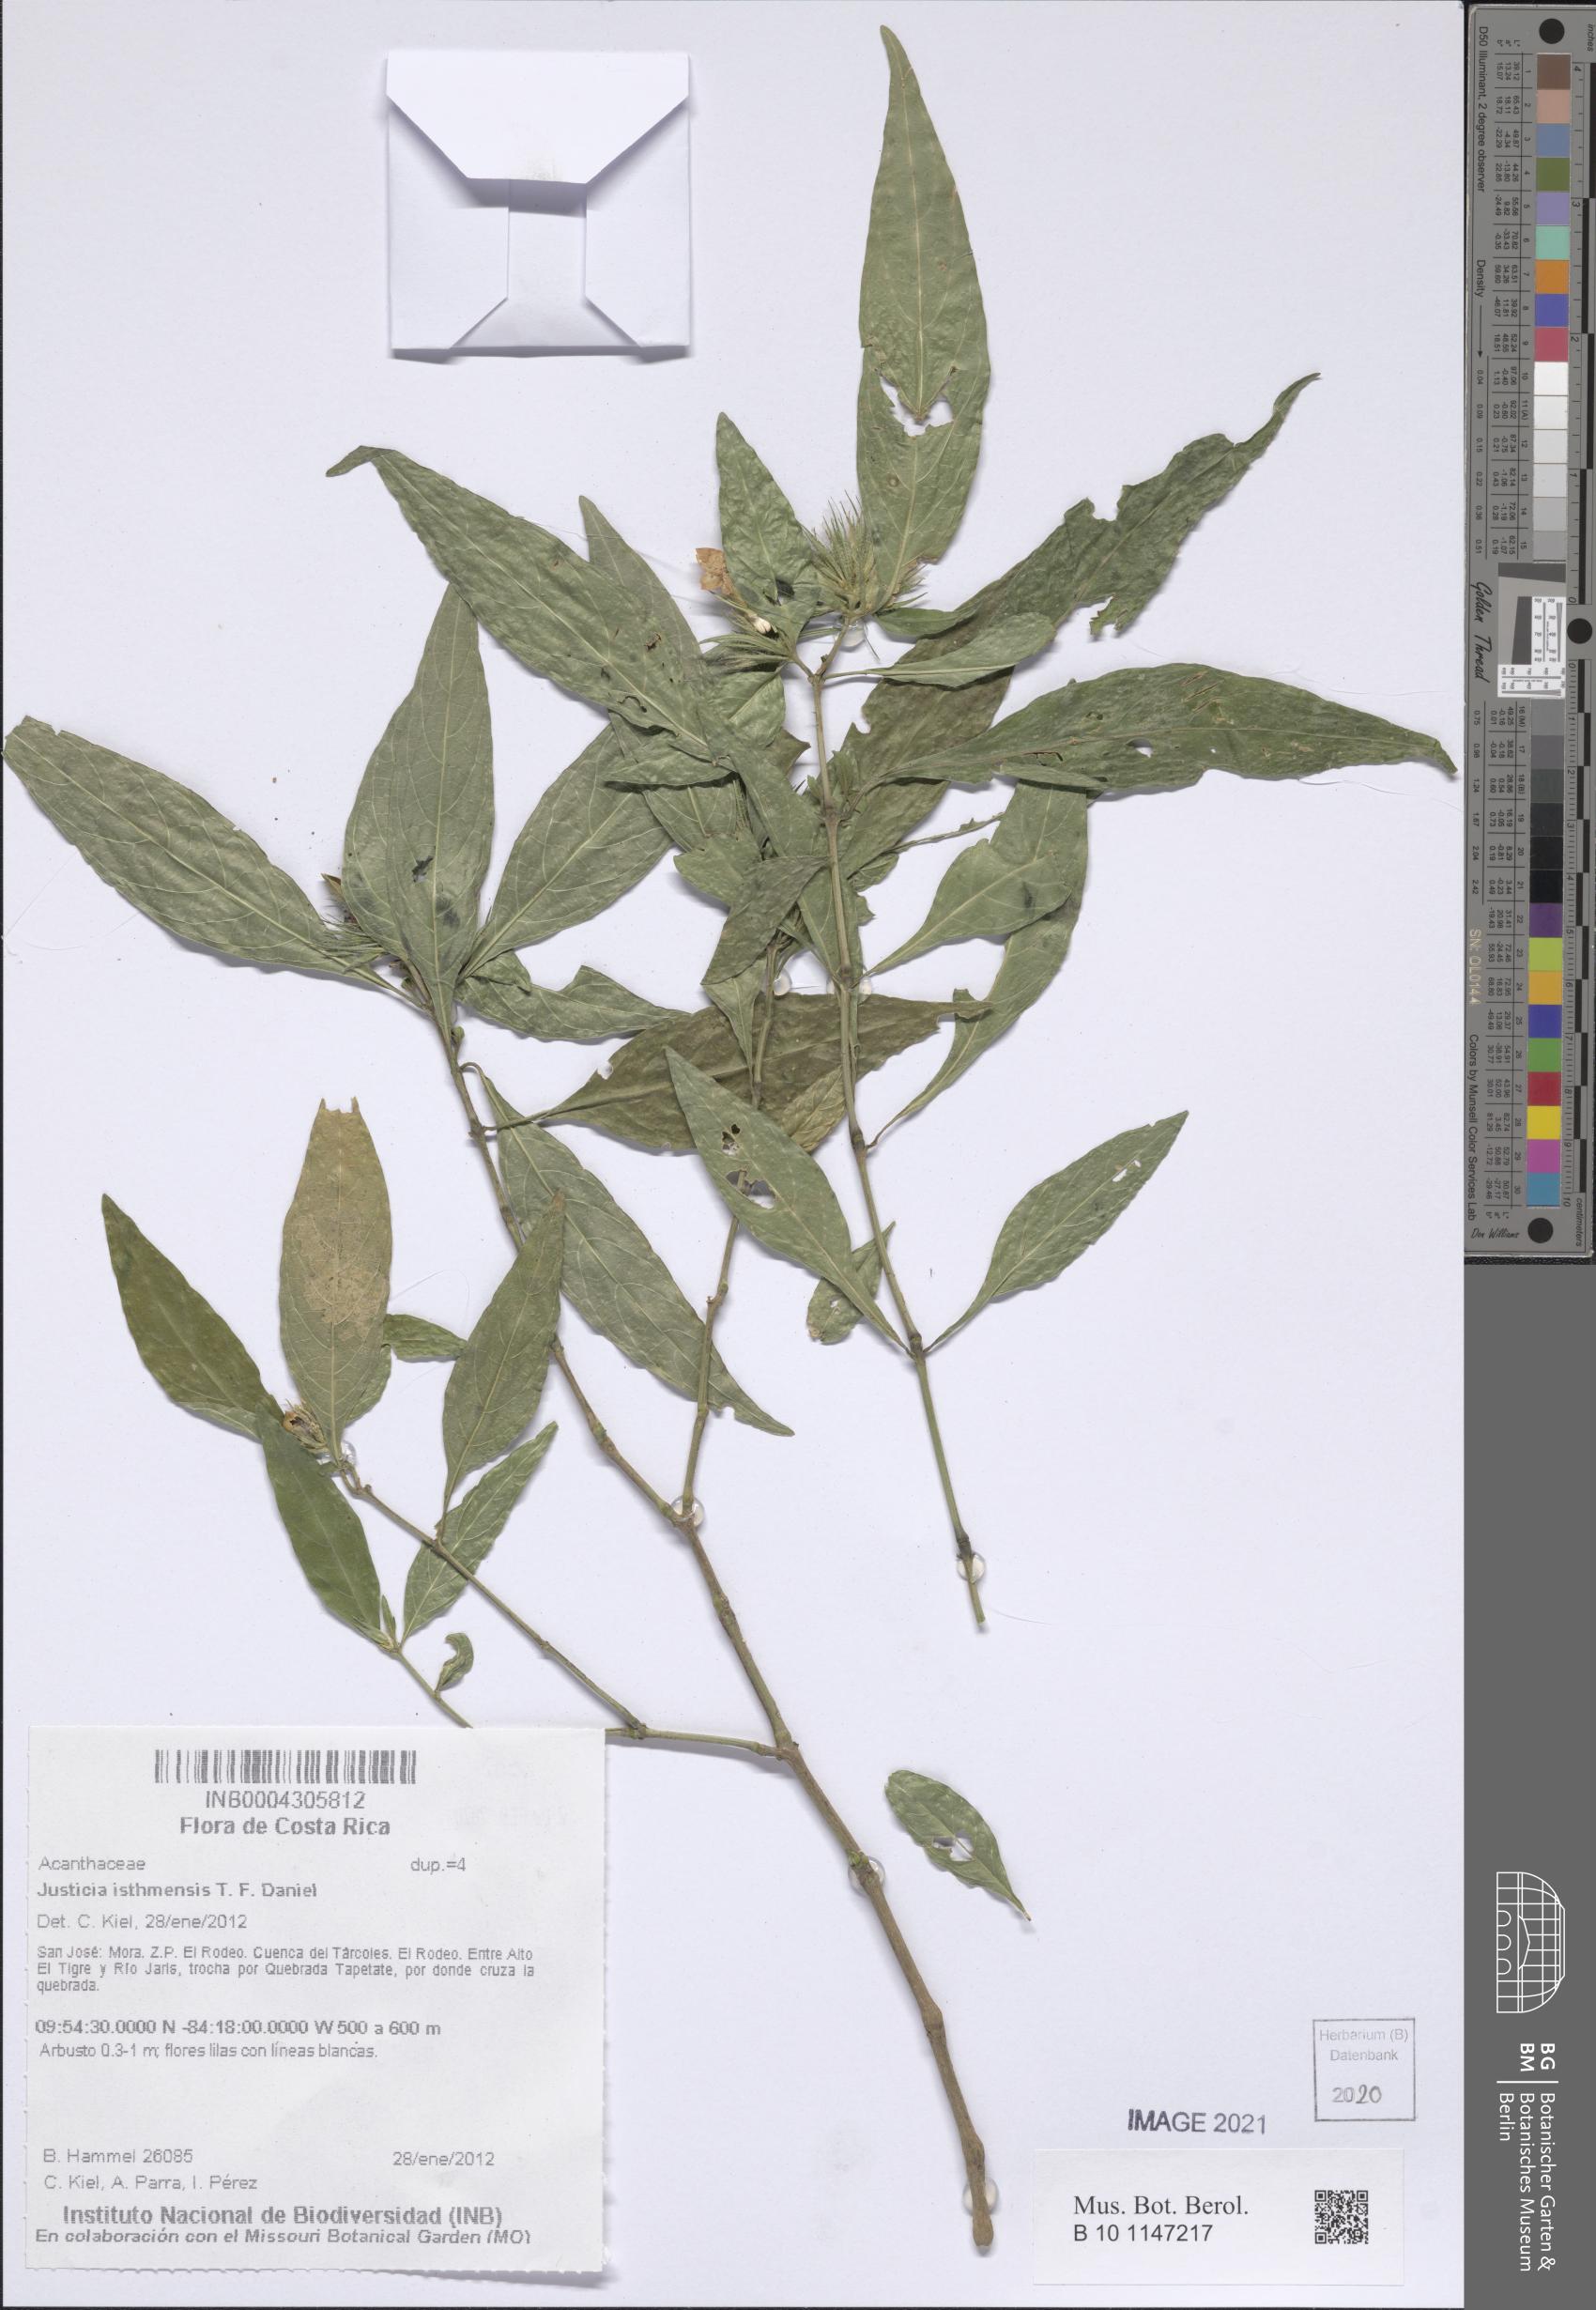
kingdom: Plantae
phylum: Tracheophyta
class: Magnoliopsida
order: Lamiales
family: Acanthaceae
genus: Justicia
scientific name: Justicia isthmensis
